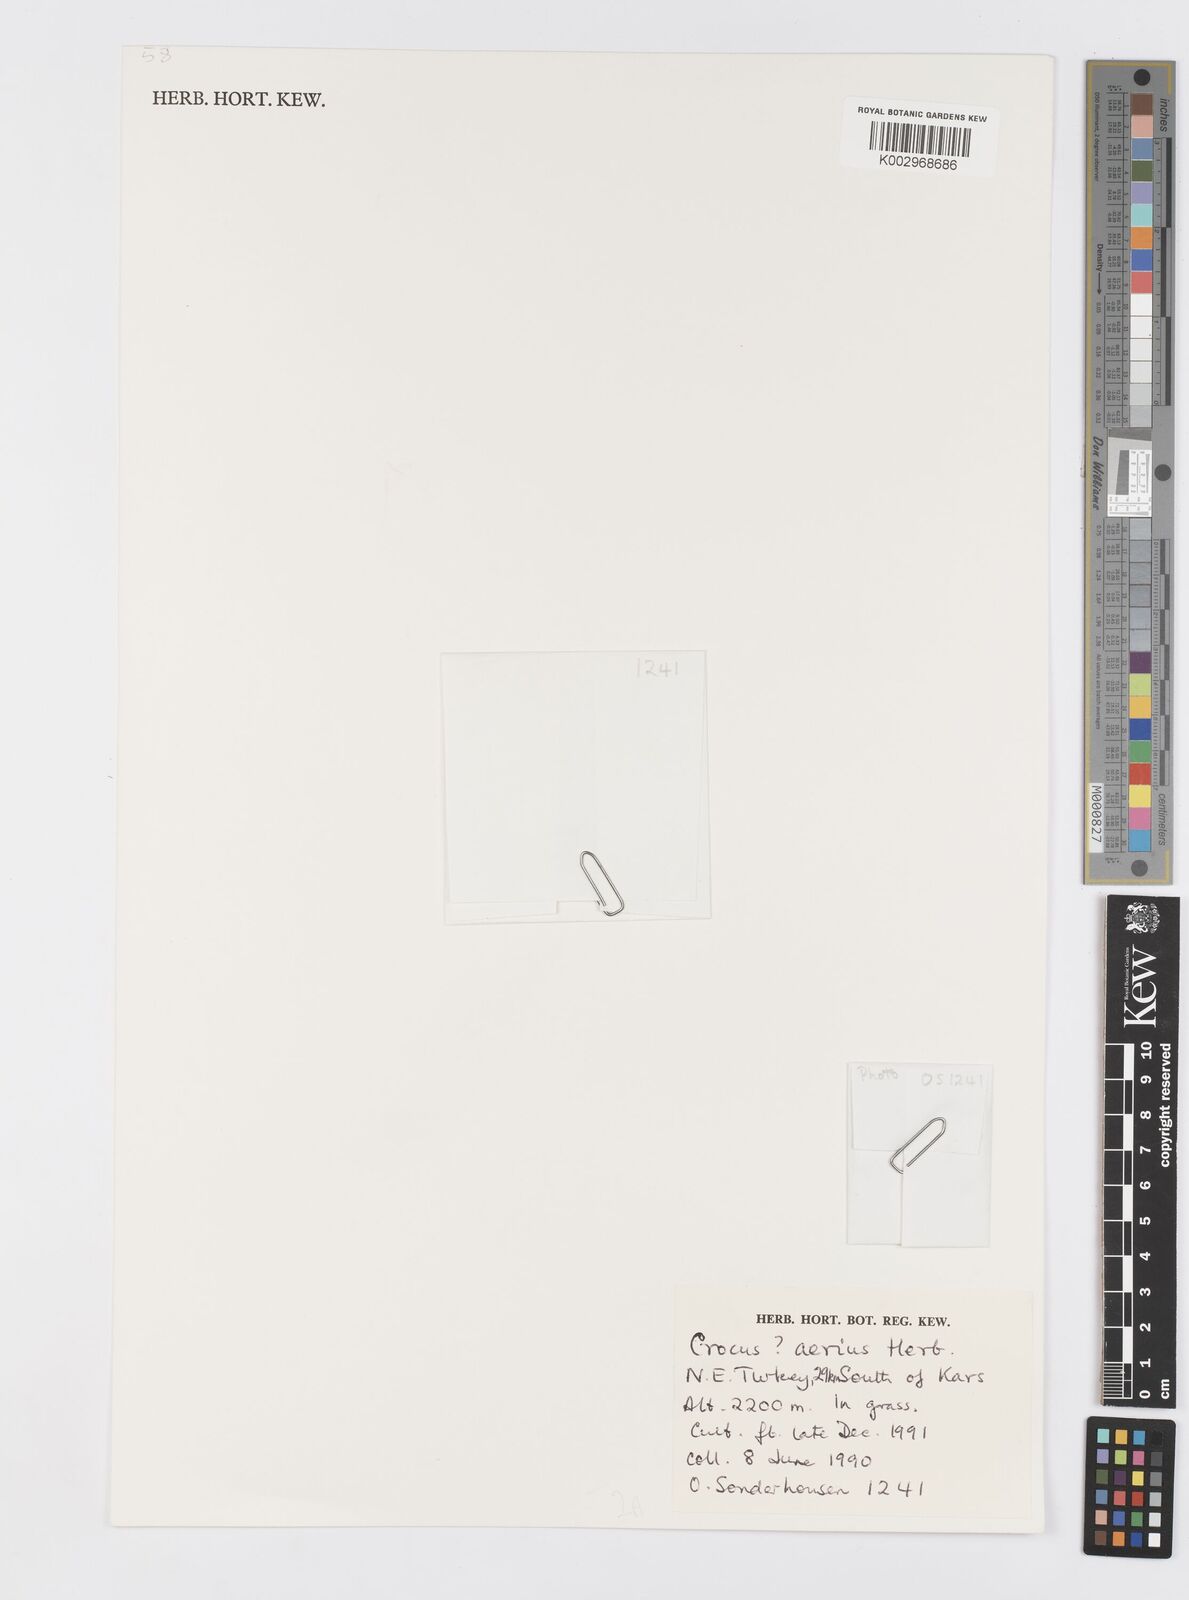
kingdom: Plantae
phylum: Tracheophyta
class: Liliopsida
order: Asparagales
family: Iridaceae
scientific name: Iridaceae
